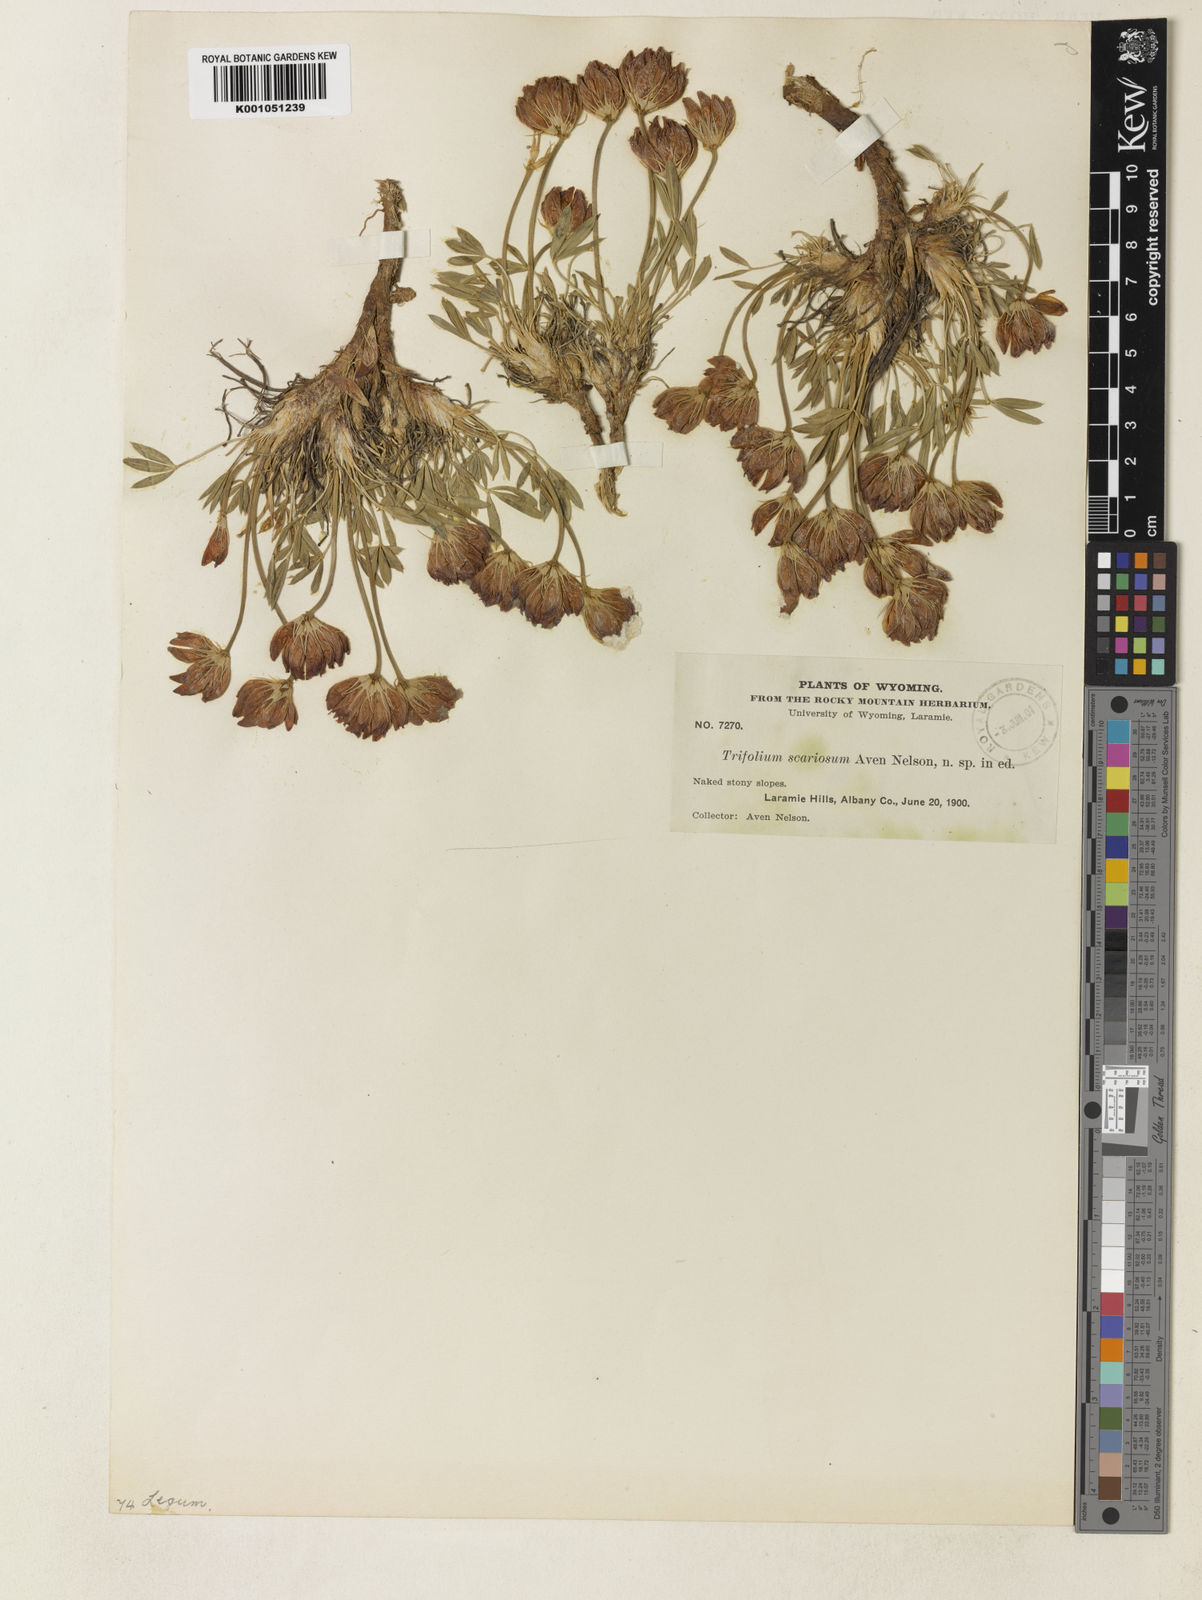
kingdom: Plantae
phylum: Tracheophyta
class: Magnoliopsida
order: Fabales
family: Fabaceae
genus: Trifolium
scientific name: Trifolium dasyphyllum
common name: Whip-root clover
